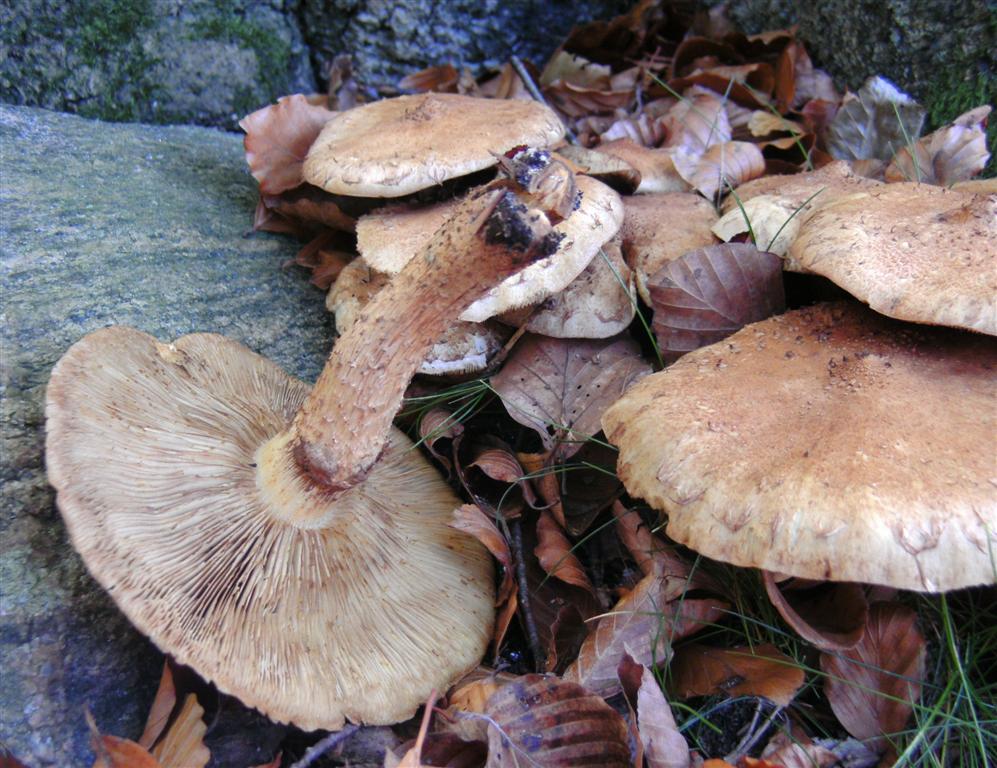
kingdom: Fungi
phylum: Basidiomycota
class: Agaricomycetes
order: Agaricales
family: Strophariaceae
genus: Pholiota
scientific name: Pholiota squarrosa
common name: krumskællet skælhat
